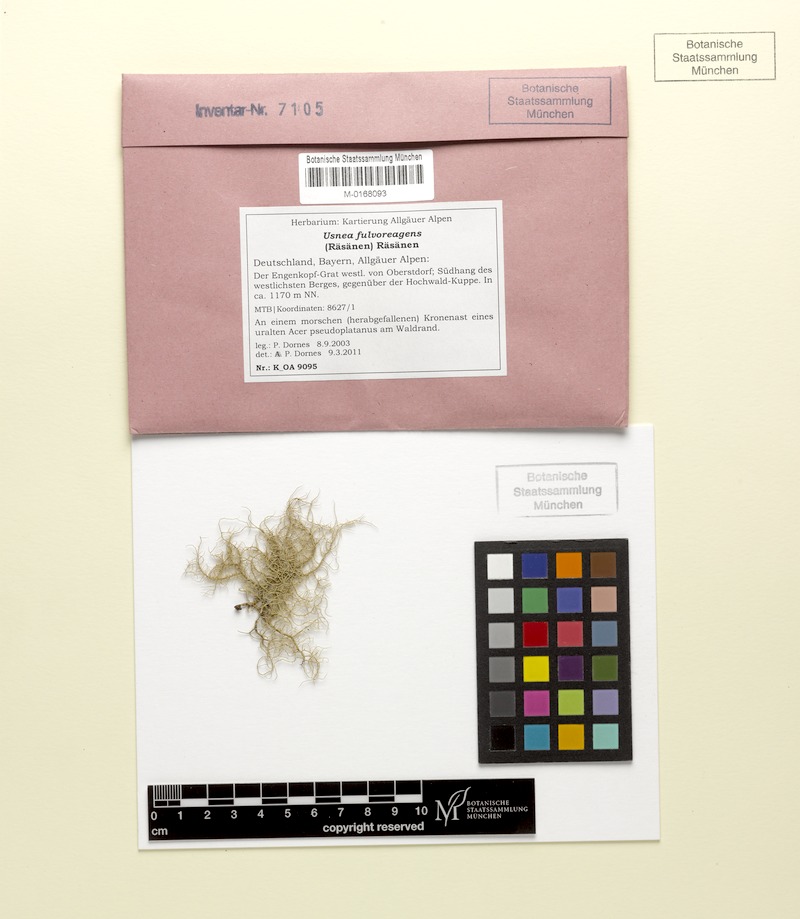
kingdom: Fungi
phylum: Ascomycota
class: Lecanoromycetes
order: Lecanorales
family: Parmeliaceae
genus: Usnea
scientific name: Usnea fulvoreagens
